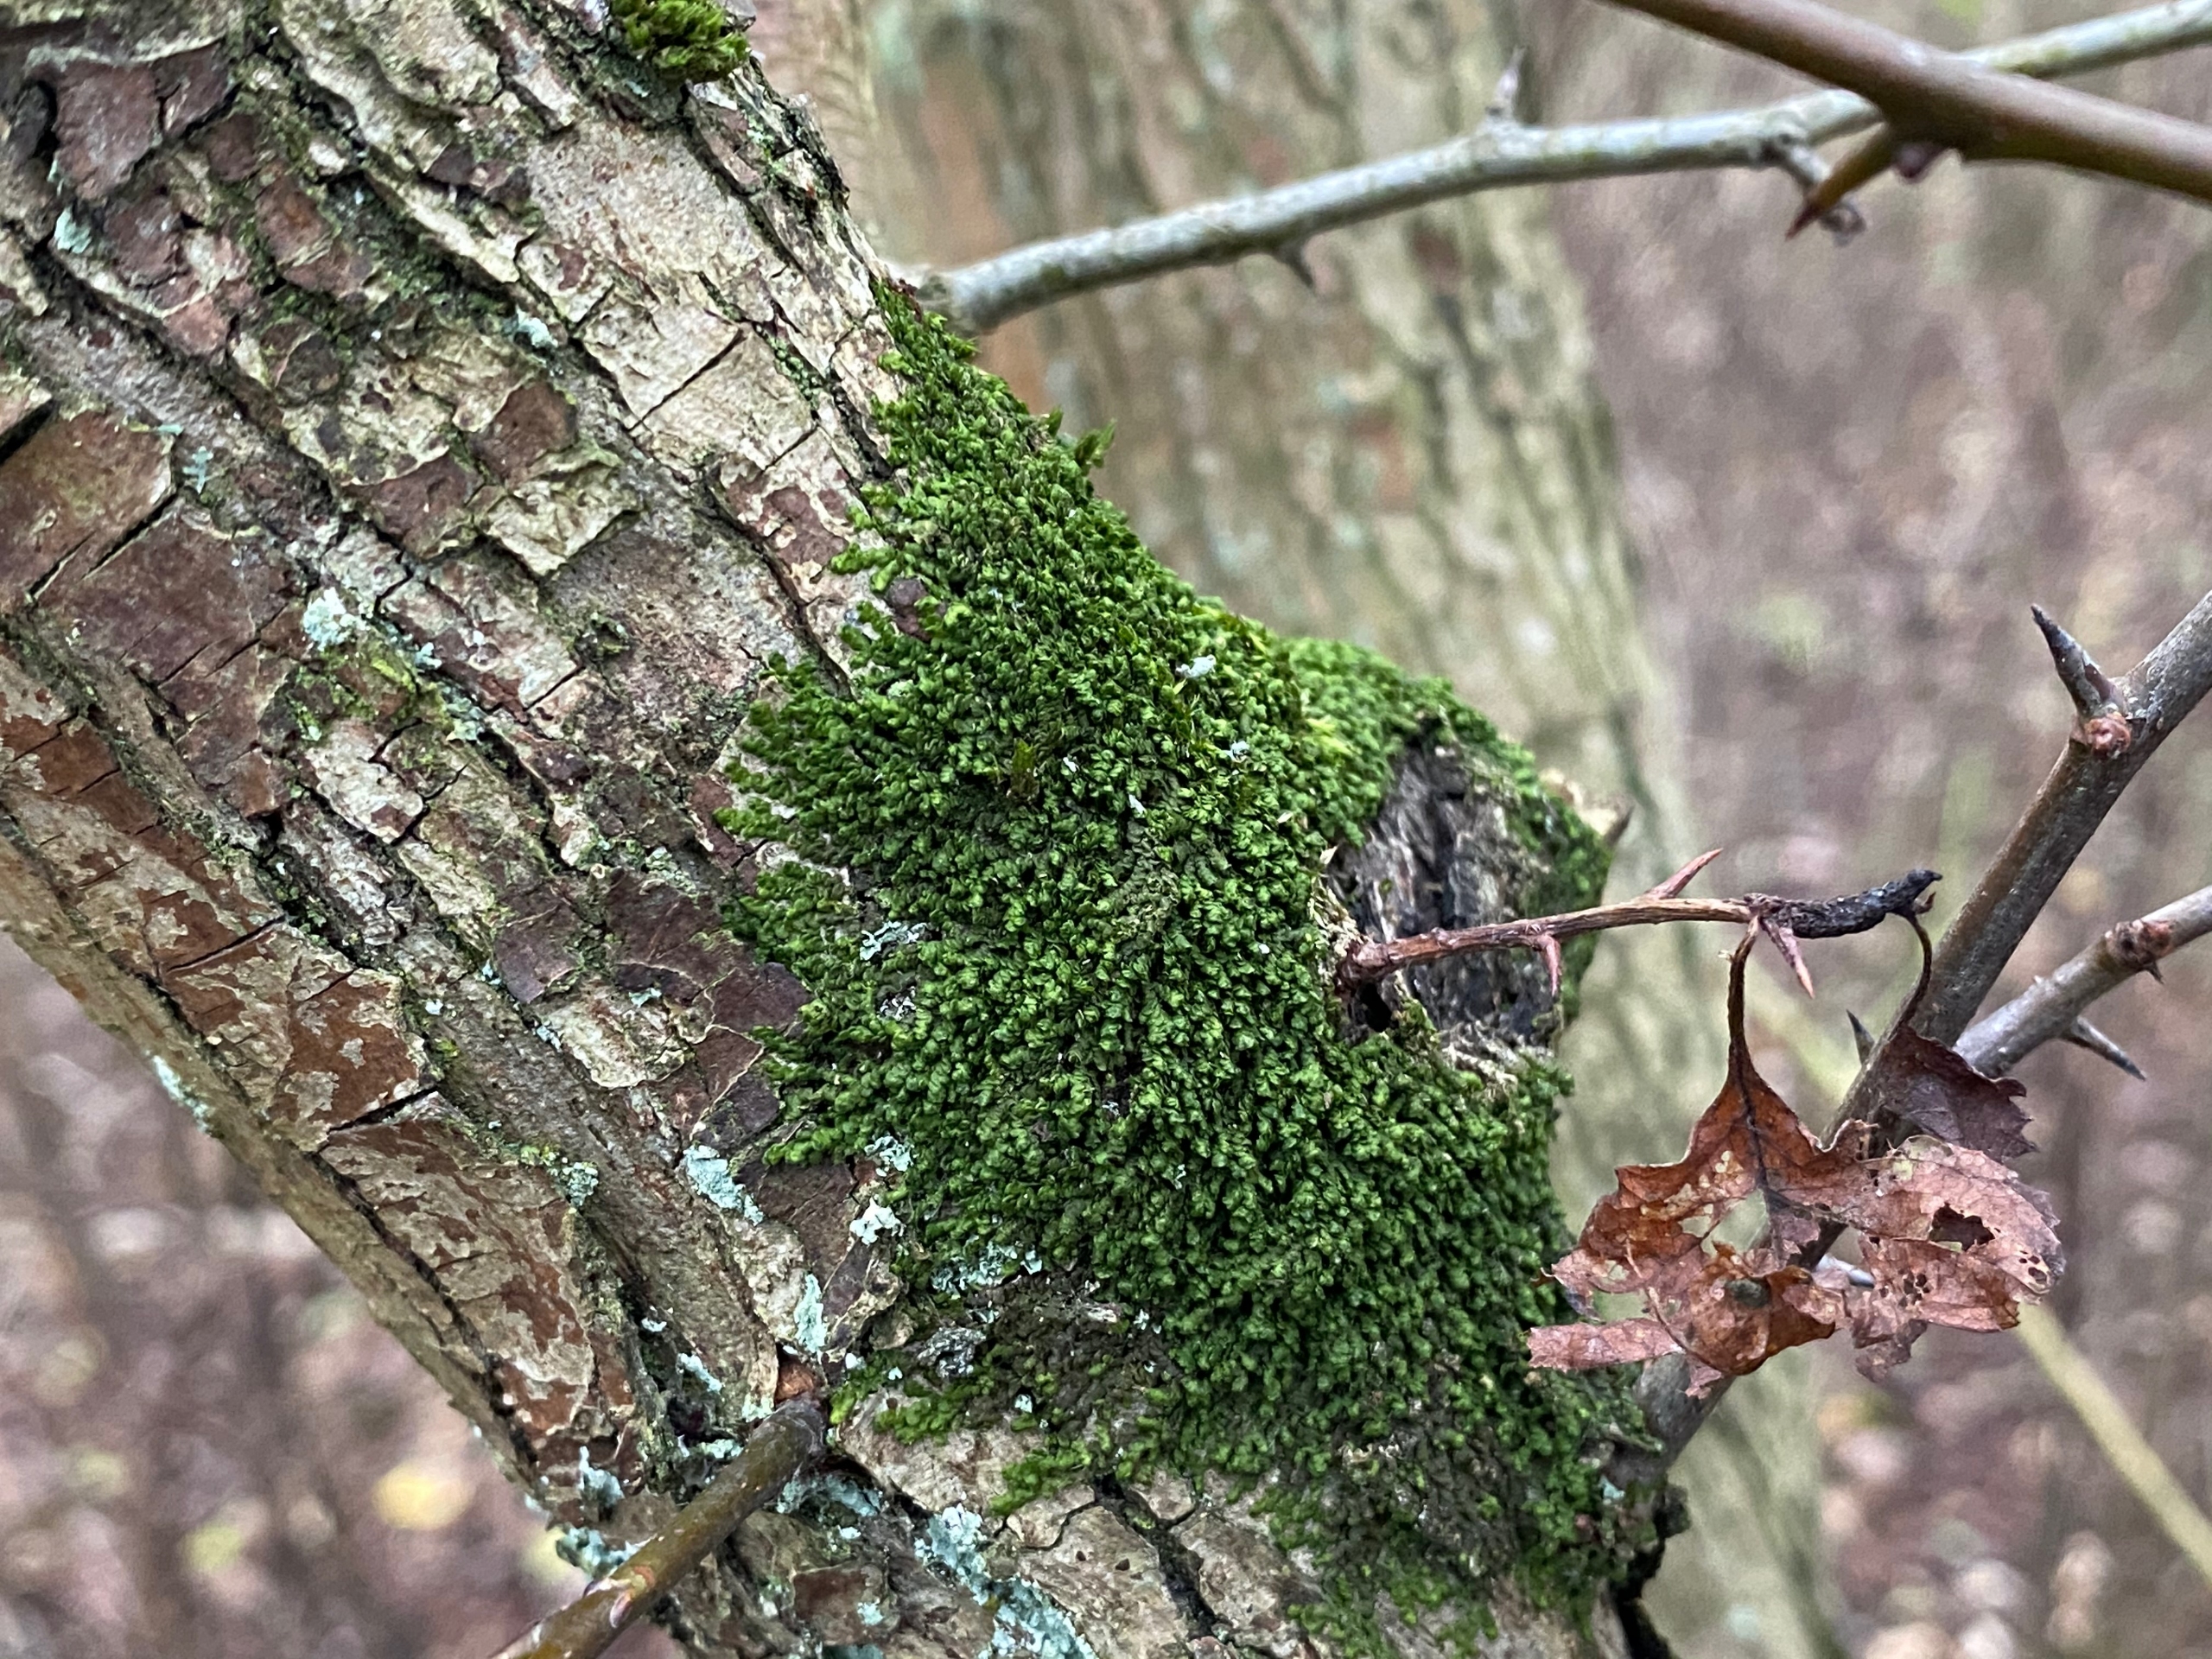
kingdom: Plantae
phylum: Marchantiophyta
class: Jungermanniopsida
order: Porellales
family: Frullaniaceae
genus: Frullania
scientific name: Frullania dilatata
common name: Mat bronzemos
